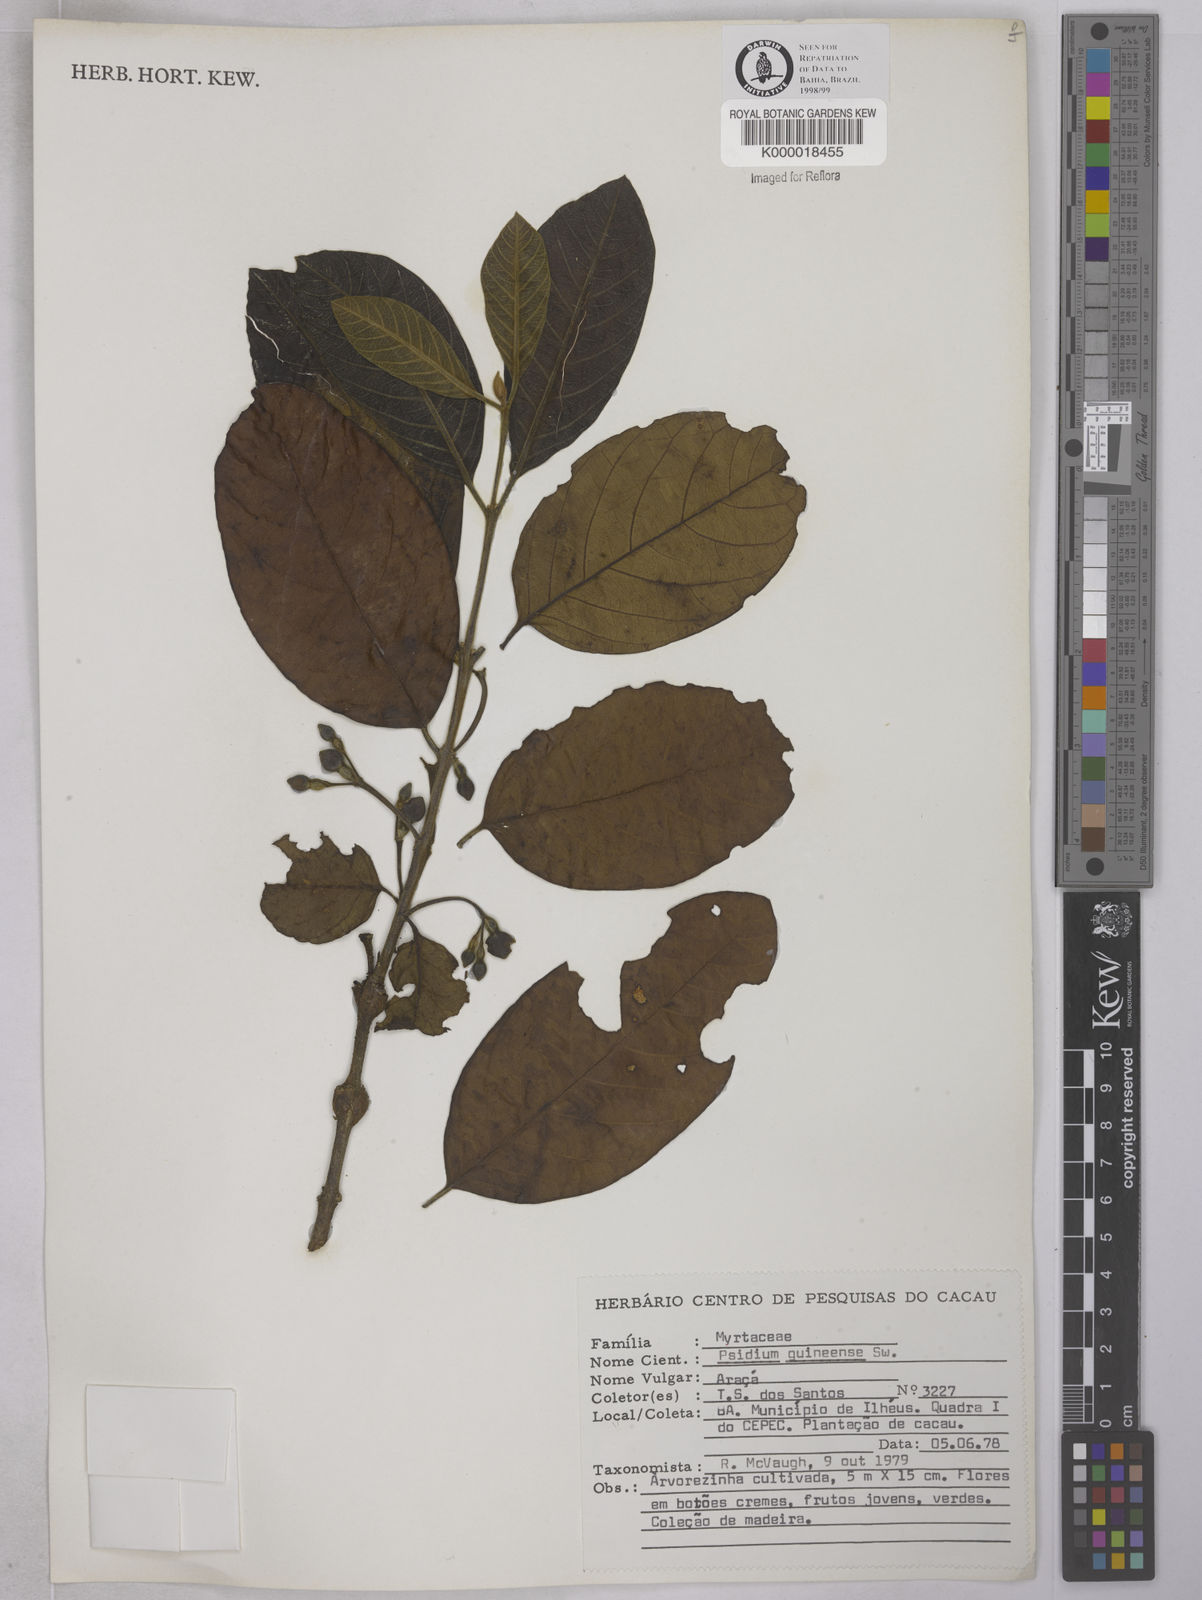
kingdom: Plantae
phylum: Tracheophyta
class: Magnoliopsida
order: Myrtales
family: Myrtaceae
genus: Psidium
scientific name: Psidium guineense
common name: Brazilian guava
